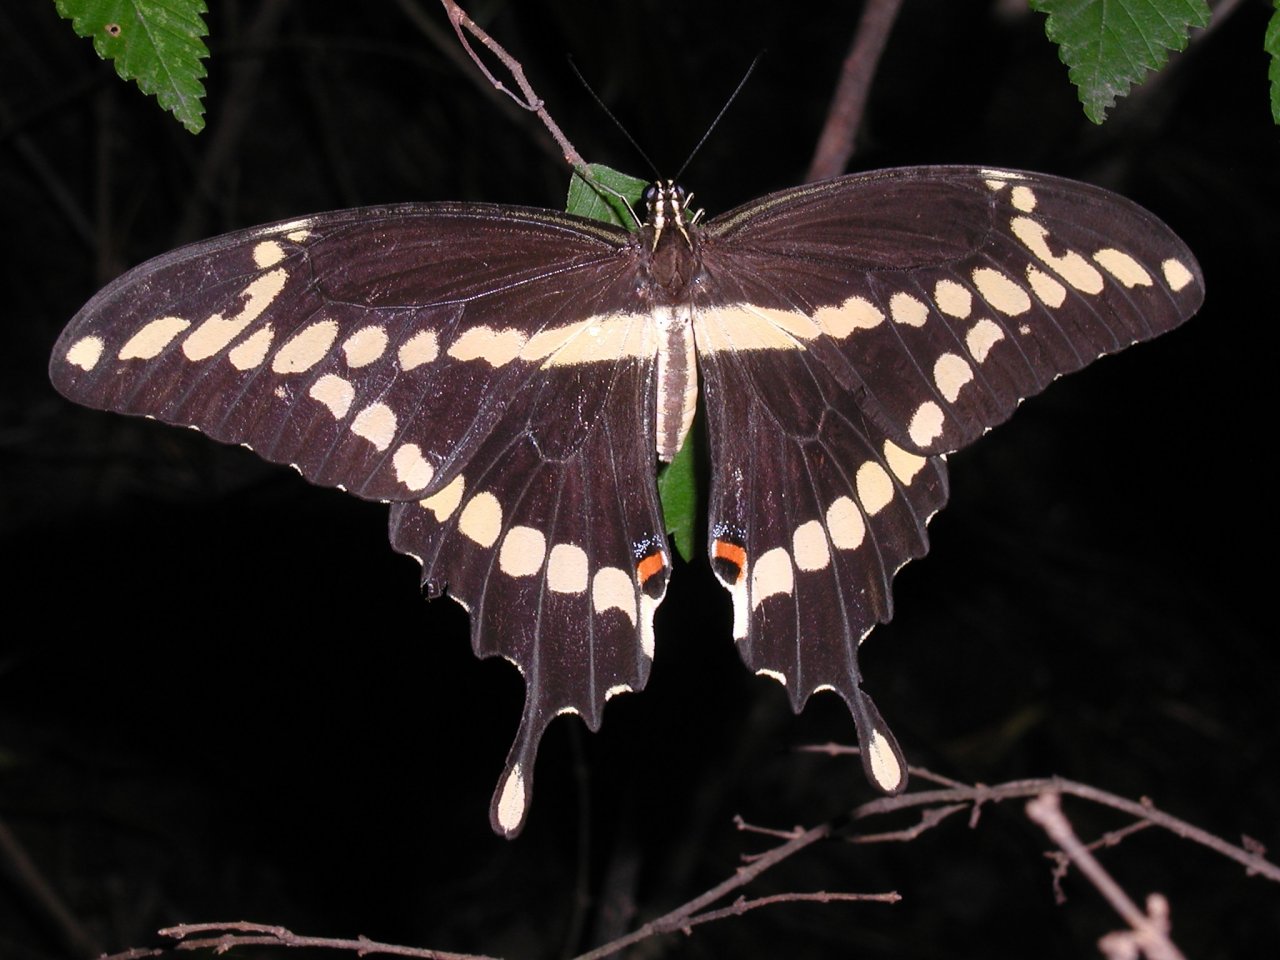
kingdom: Animalia
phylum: Arthropoda
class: Insecta
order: Lepidoptera
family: Papilionidae
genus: Papilio
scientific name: Papilio cresphontes
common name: Eastern Giant Swallowtail
